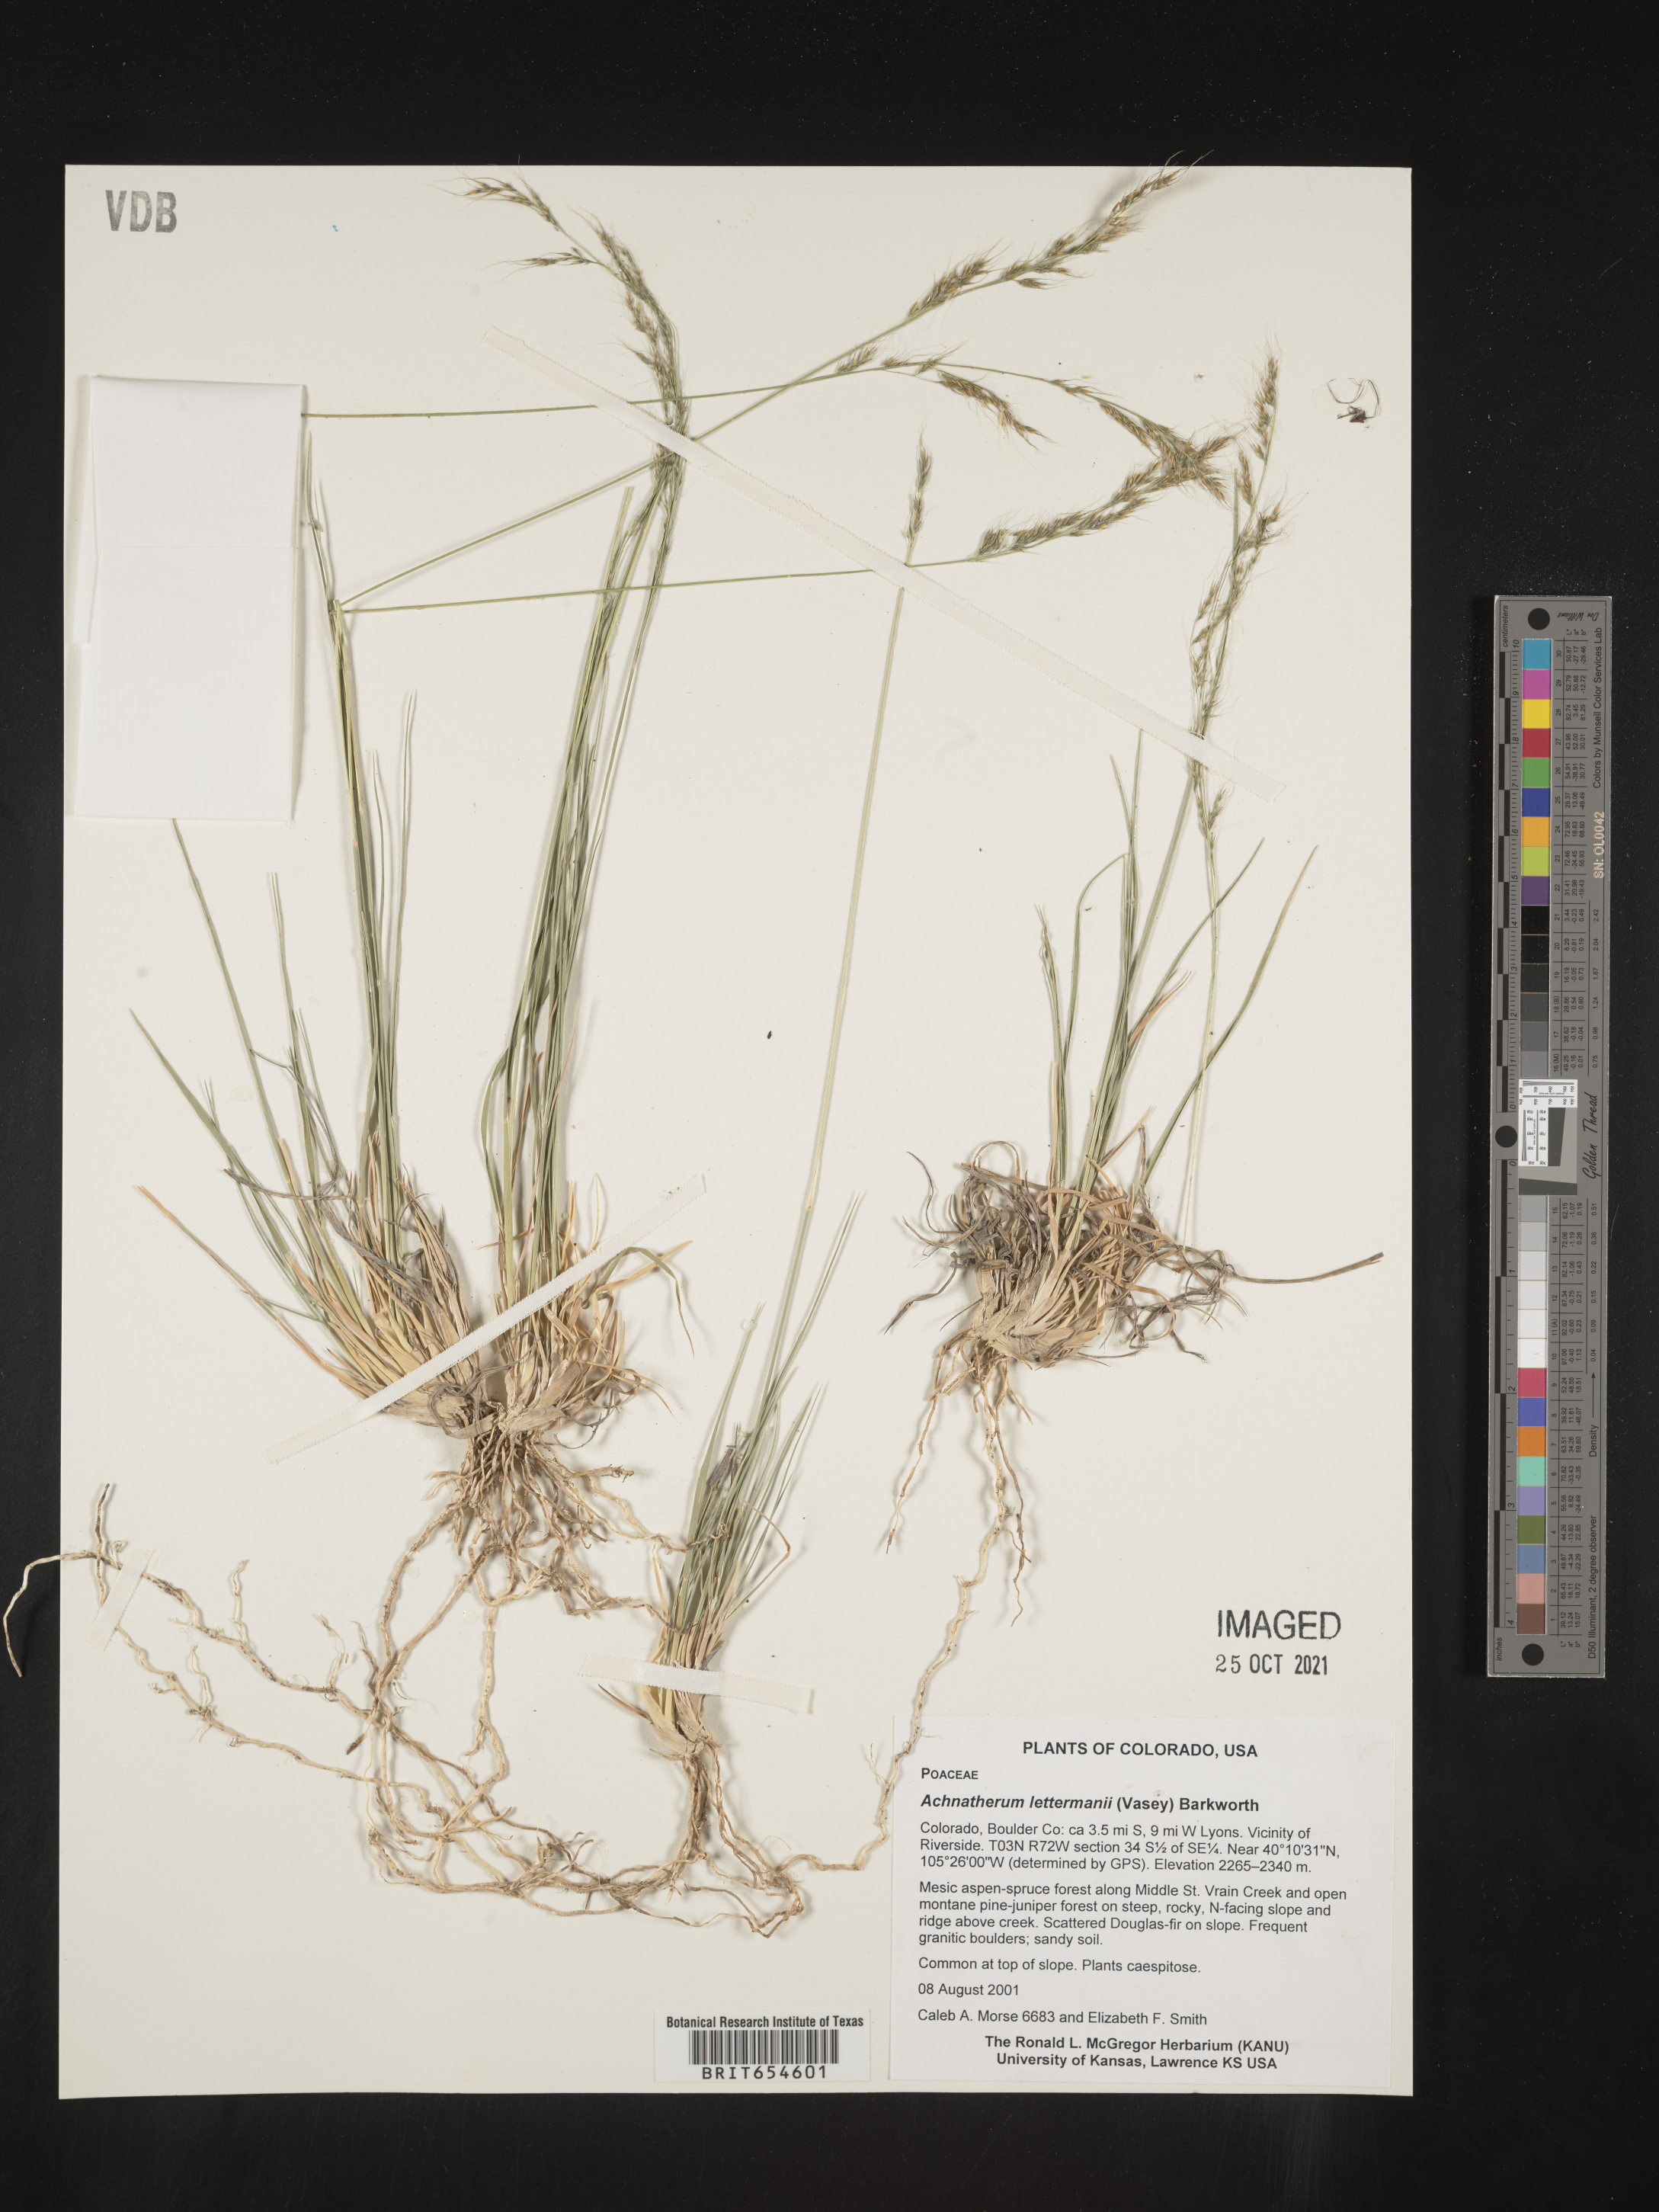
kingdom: Plantae
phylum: Tracheophyta
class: Liliopsida
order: Poales
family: Poaceae
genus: Achnatherum
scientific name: Achnatherum
